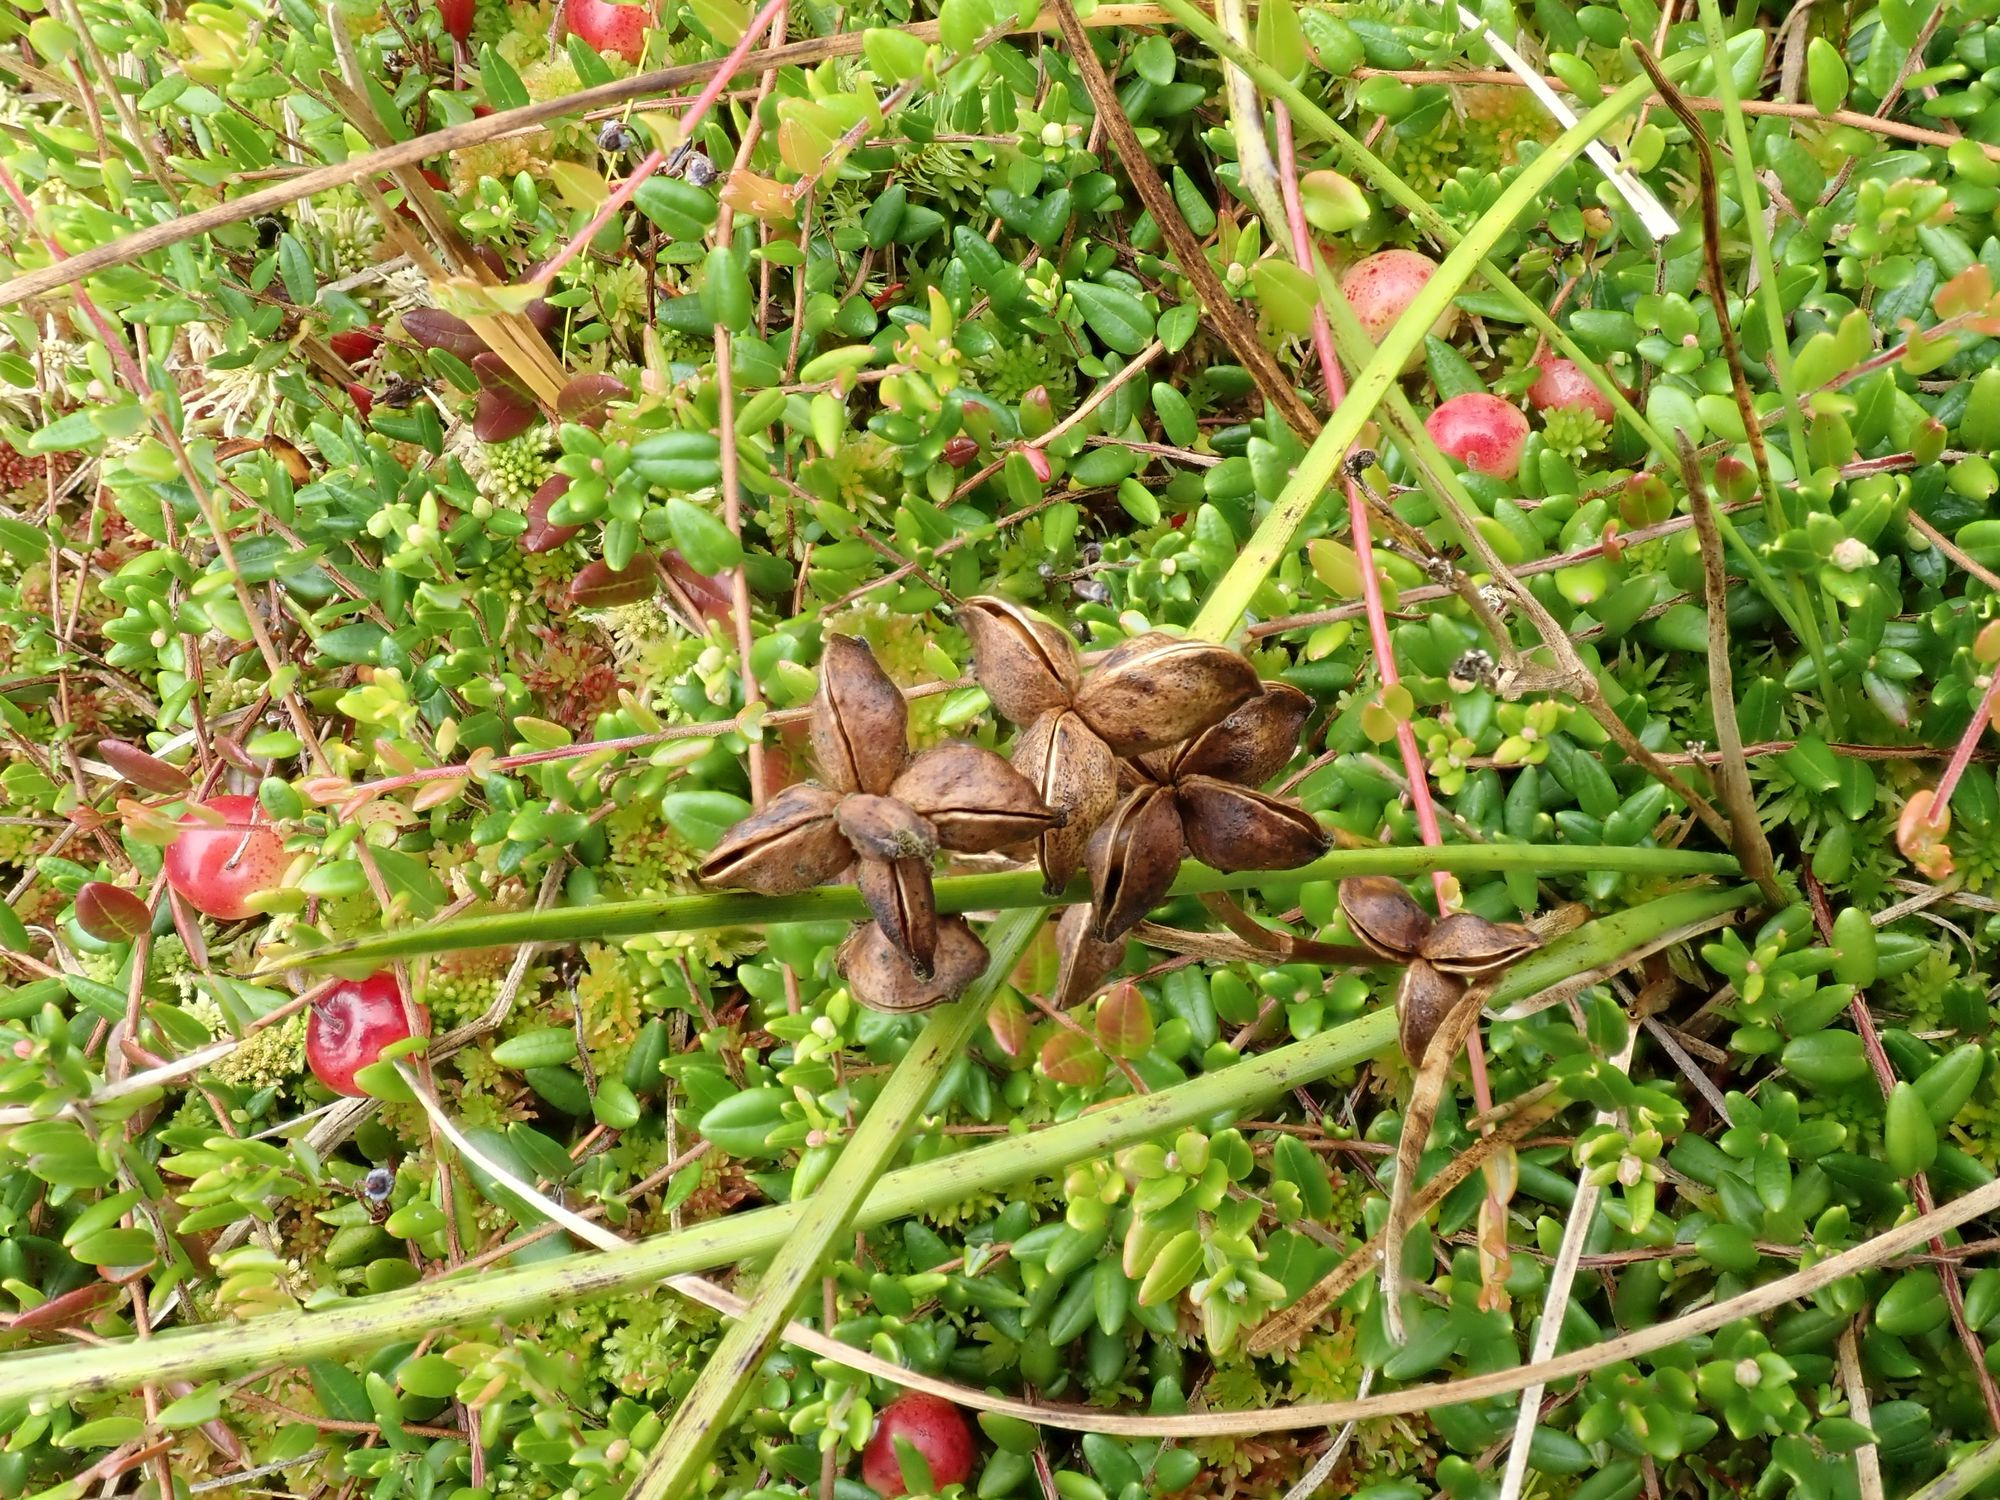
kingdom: Plantae
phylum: Tracheophyta
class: Liliopsida
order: Alismatales
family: Scheuchzeriaceae
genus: Scheuchzeria
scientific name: Scheuchzeria palustris
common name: Blomstersiv
